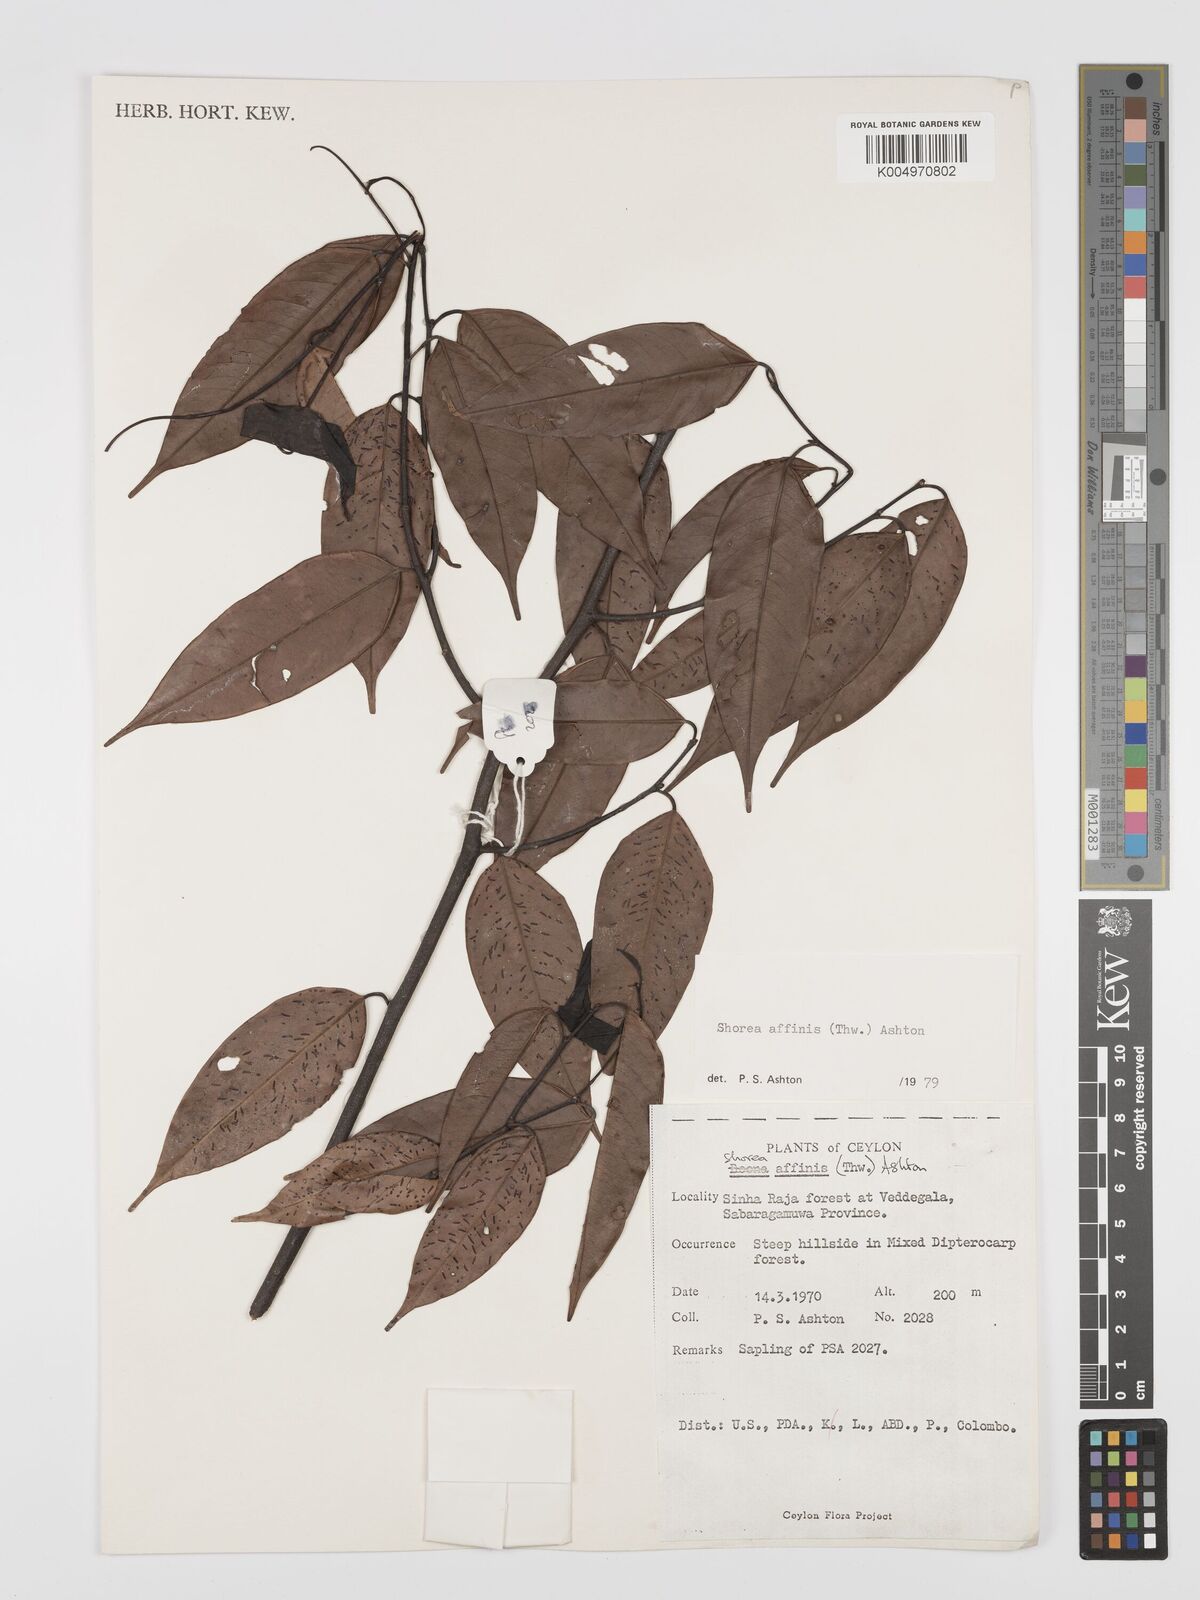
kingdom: Plantae
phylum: Tracheophyta
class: Magnoliopsida
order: Malvales
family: Dipterocarpaceae
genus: Doona
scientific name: Doona affinis
